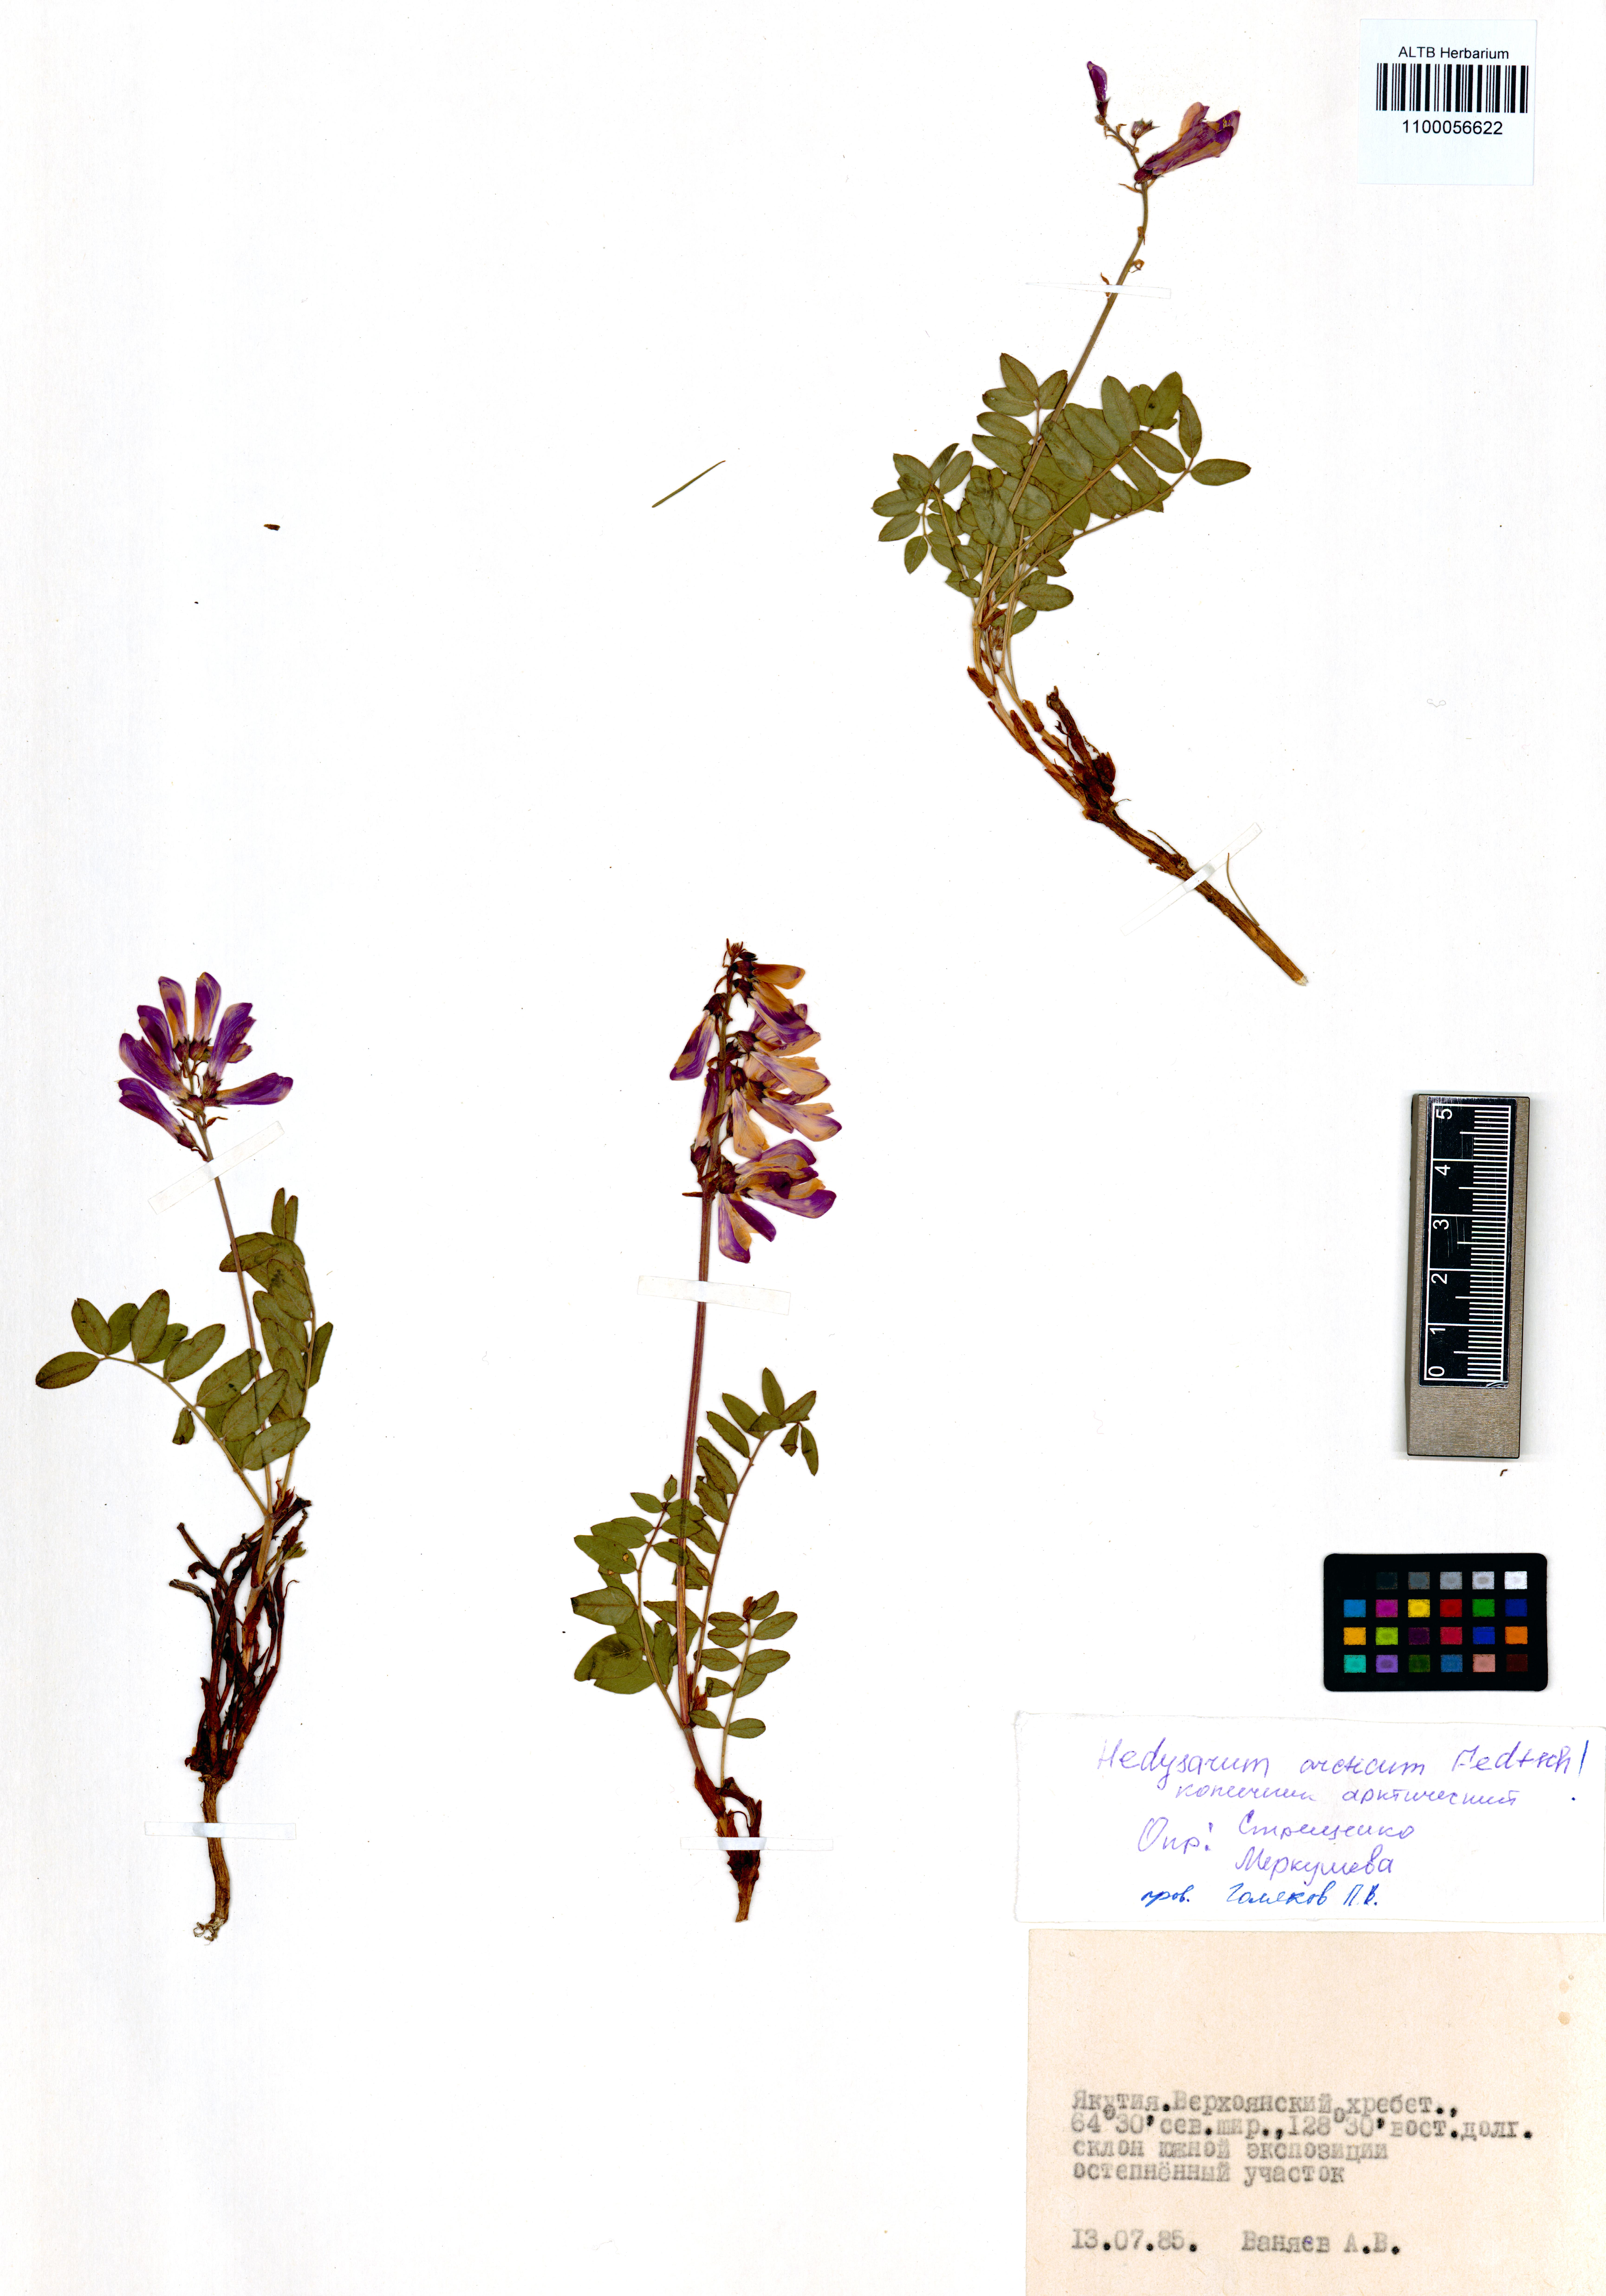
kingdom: Plantae
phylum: Tracheophyta
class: Magnoliopsida
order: Fabales
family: Fabaceae
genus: Hedysarum
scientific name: Hedysarum hedysaroides
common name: Alpine french-honeysuckle
